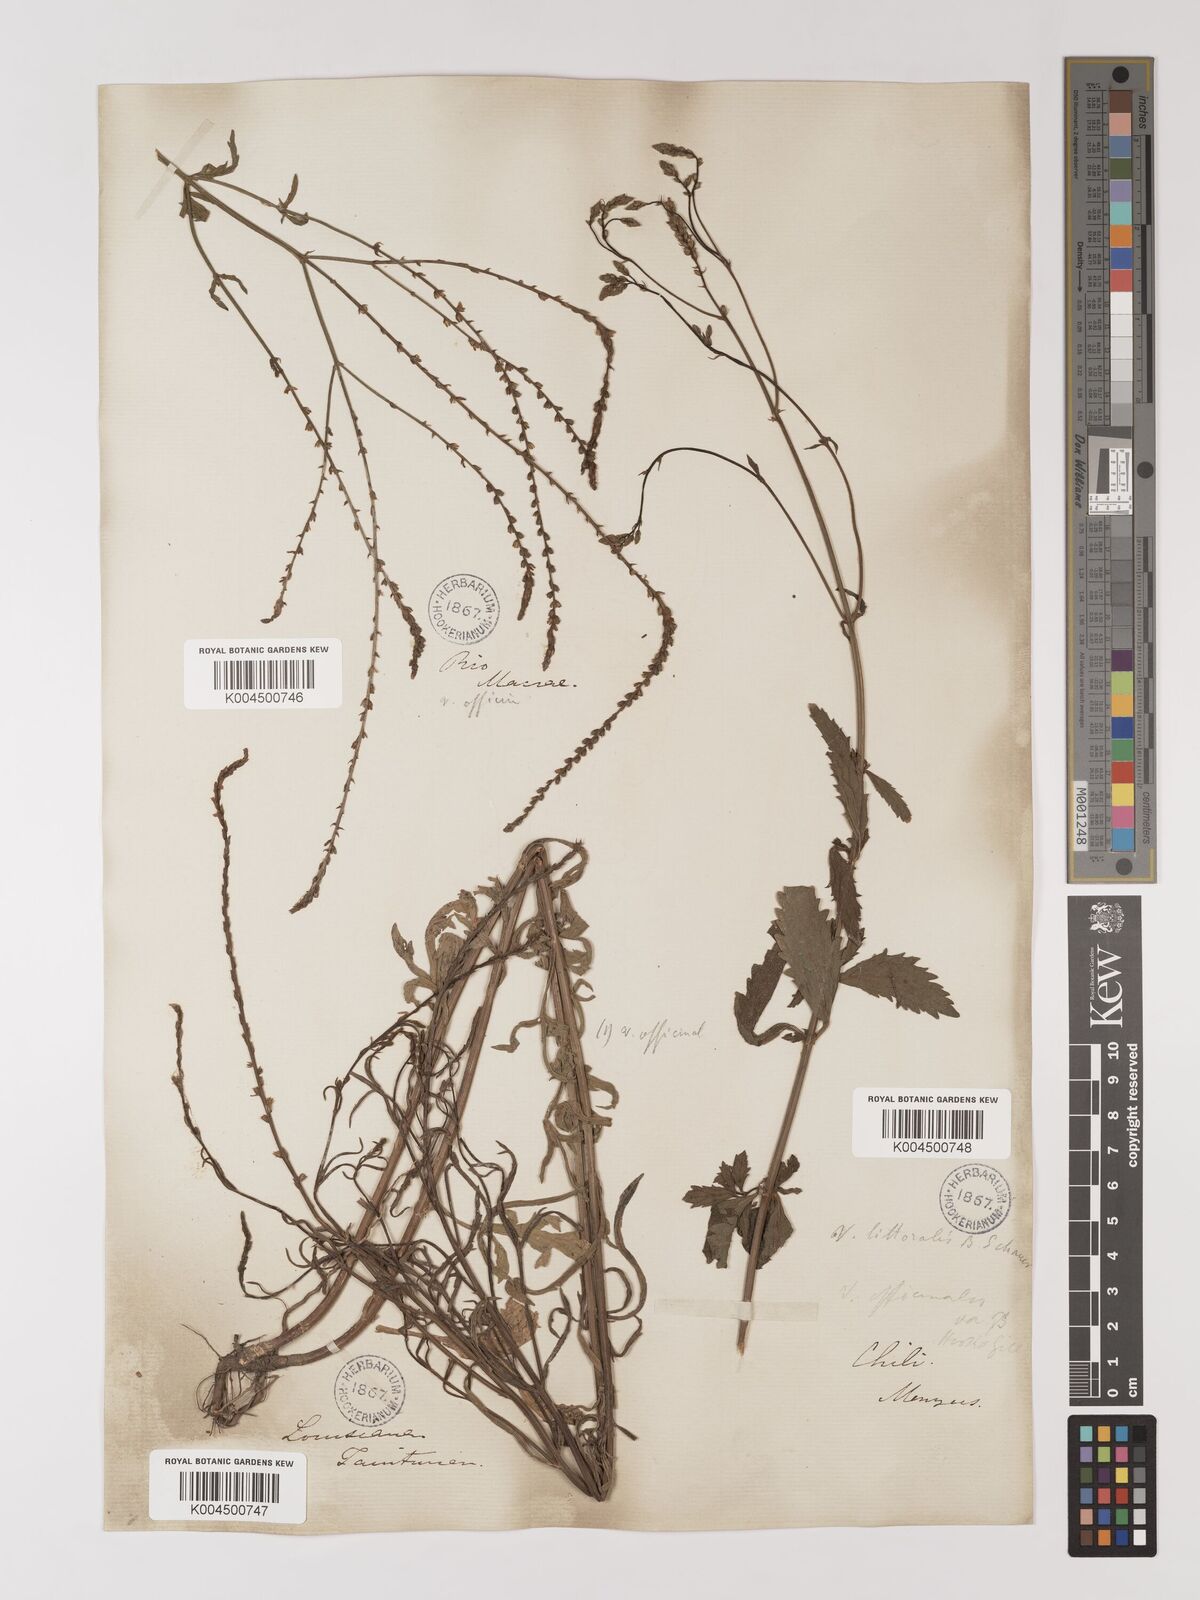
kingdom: Plantae
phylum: Tracheophyta
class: Magnoliopsida
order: Lamiales
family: Verbenaceae
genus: Verbena
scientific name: Verbena litoralis
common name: Seashore vervain
